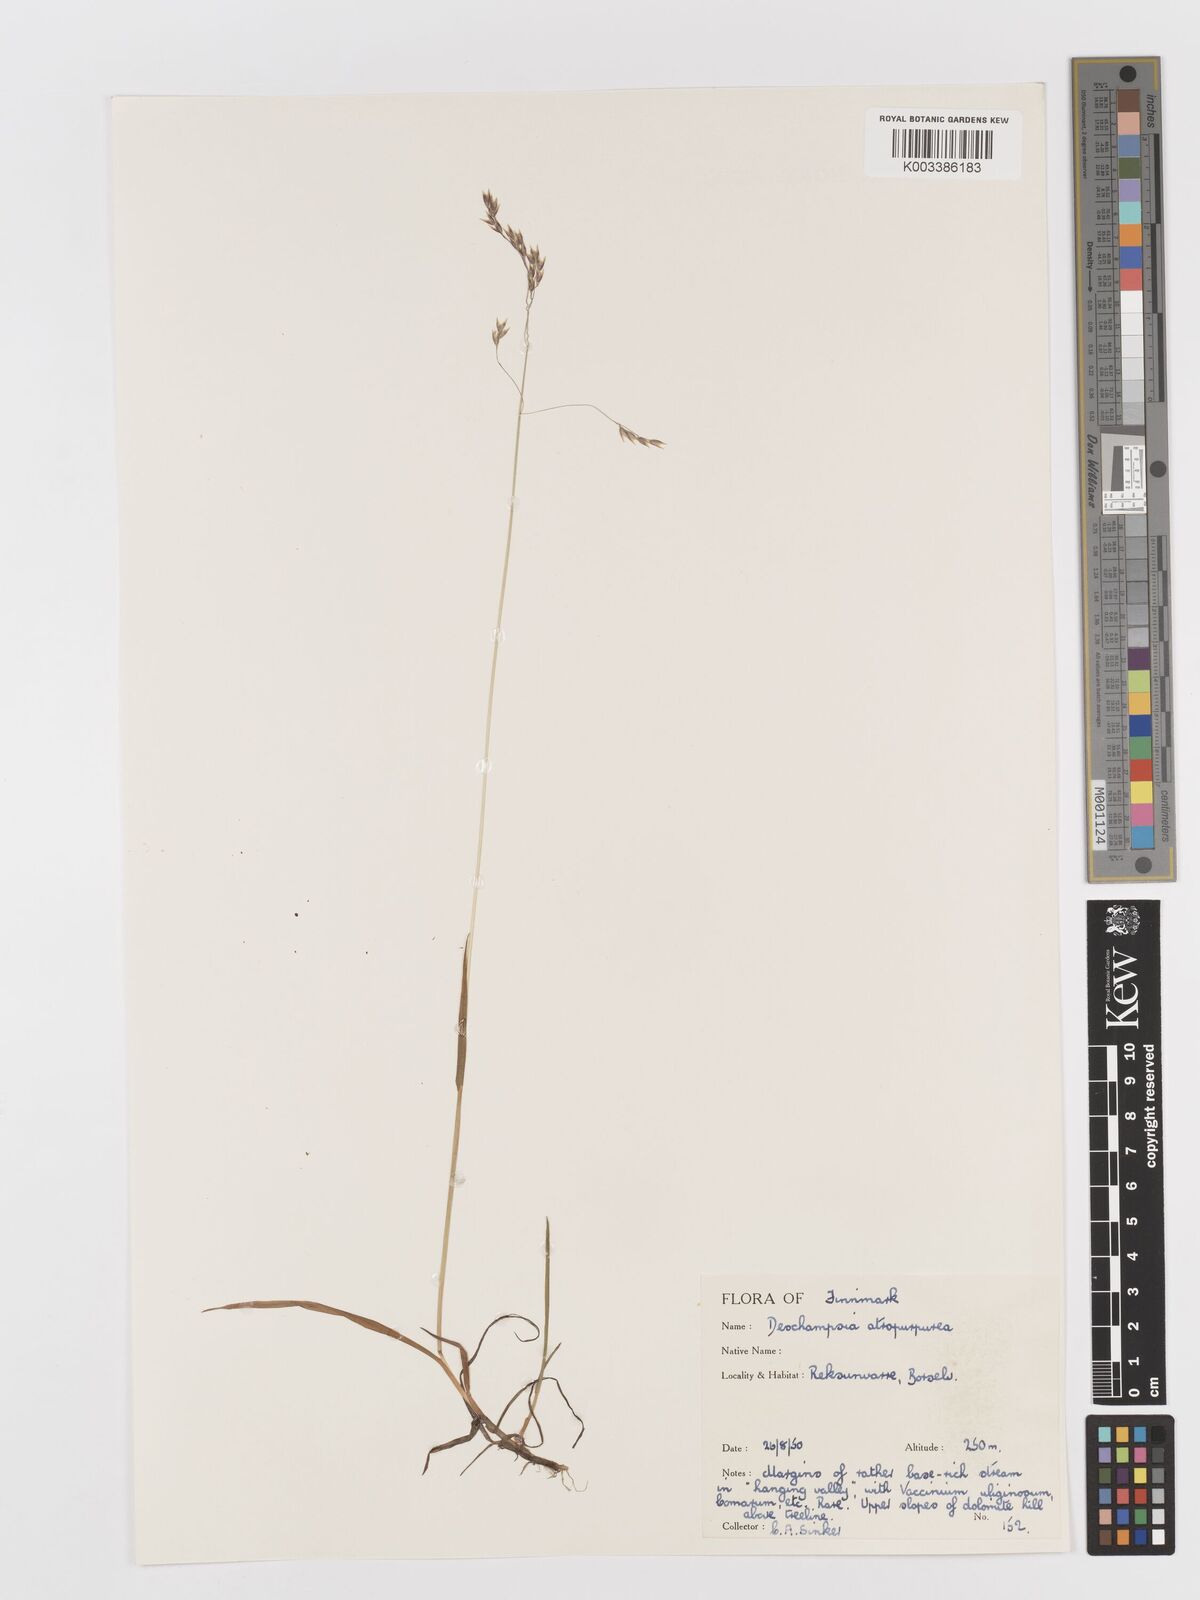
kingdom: Plantae
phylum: Tracheophyta
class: Liliopsida
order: Poales
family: Poaceae
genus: Vahlodea
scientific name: Vahlodea atropurpurea
